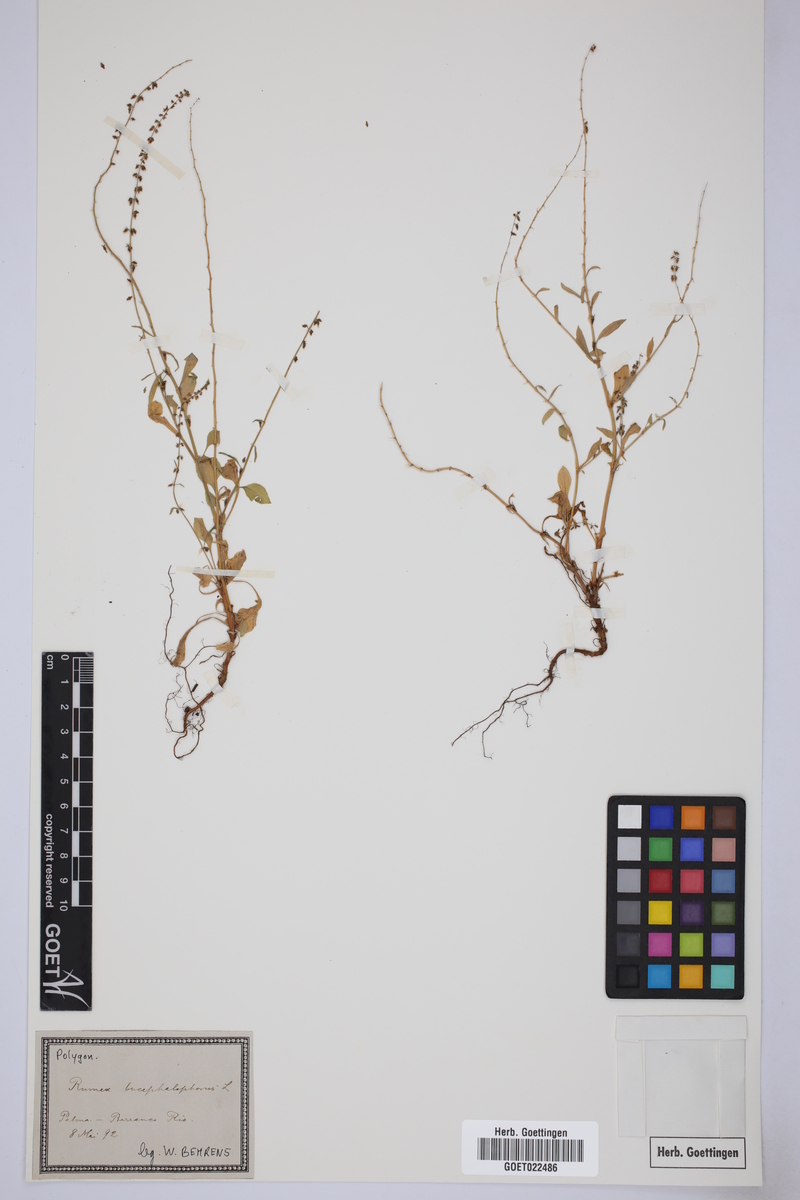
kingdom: Plantae
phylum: Tracheophyta
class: Magnoliopsida
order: Caryophyllales
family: Polygonaceae
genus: Rumex
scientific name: Rumex bucephalophorus
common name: Red dock
